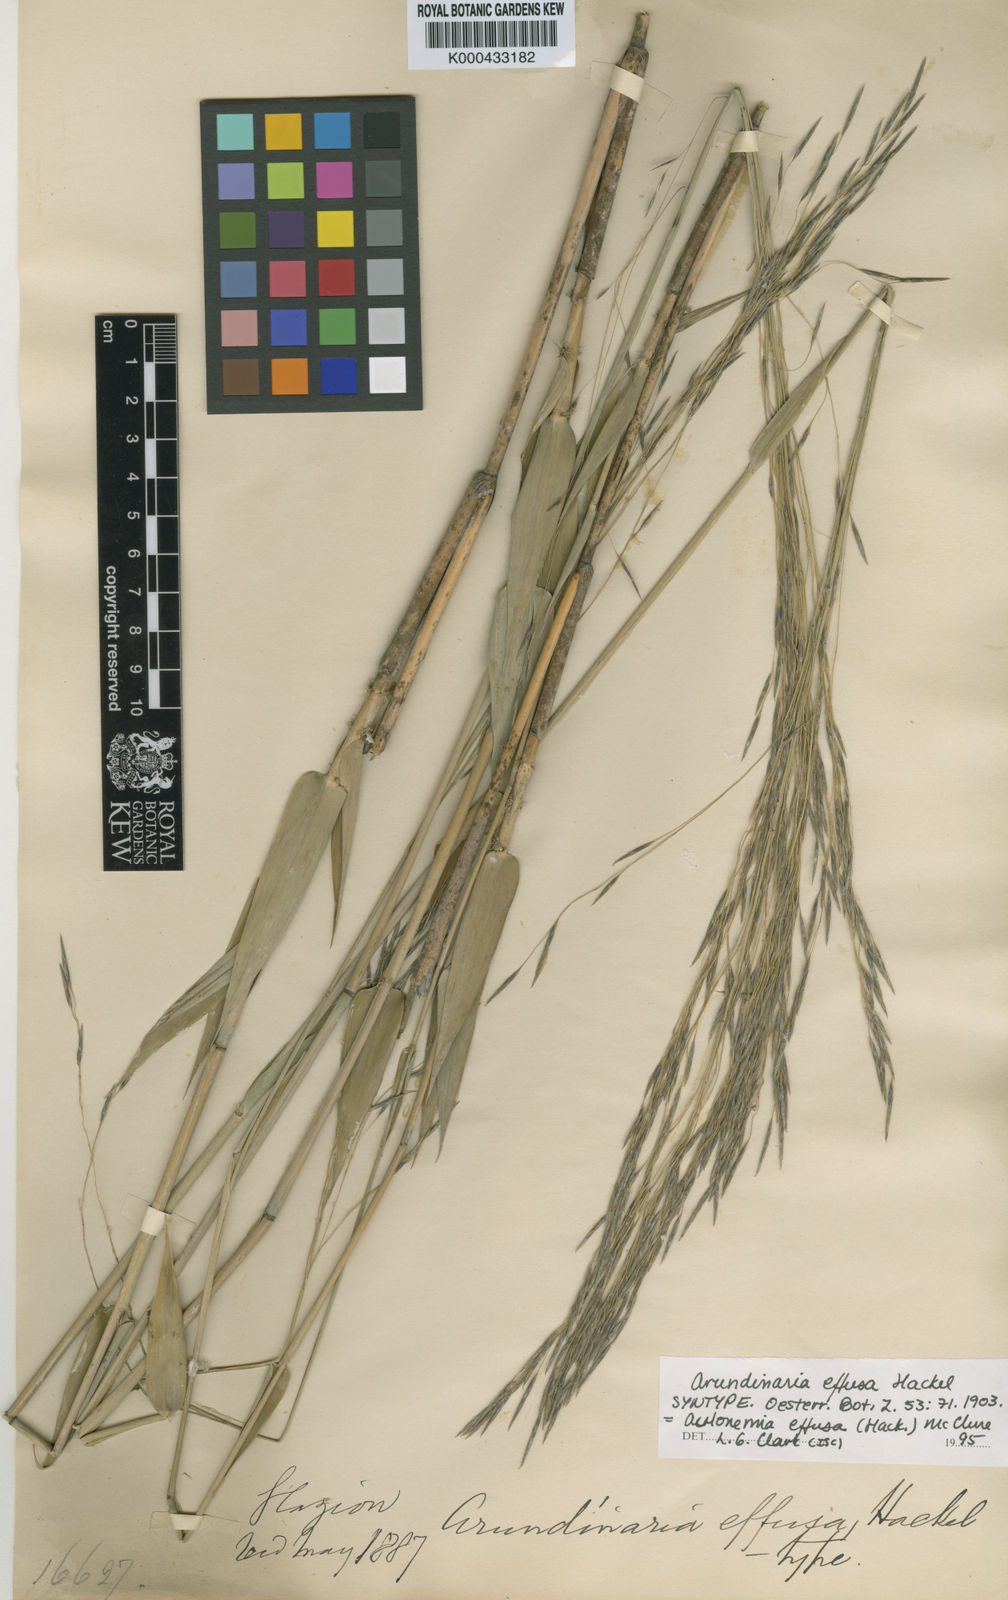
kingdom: Plantae
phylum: Tracheophyta
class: Liliopsida
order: Poales
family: Poaceae
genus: Aulonemia
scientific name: Aulonemia effusa
